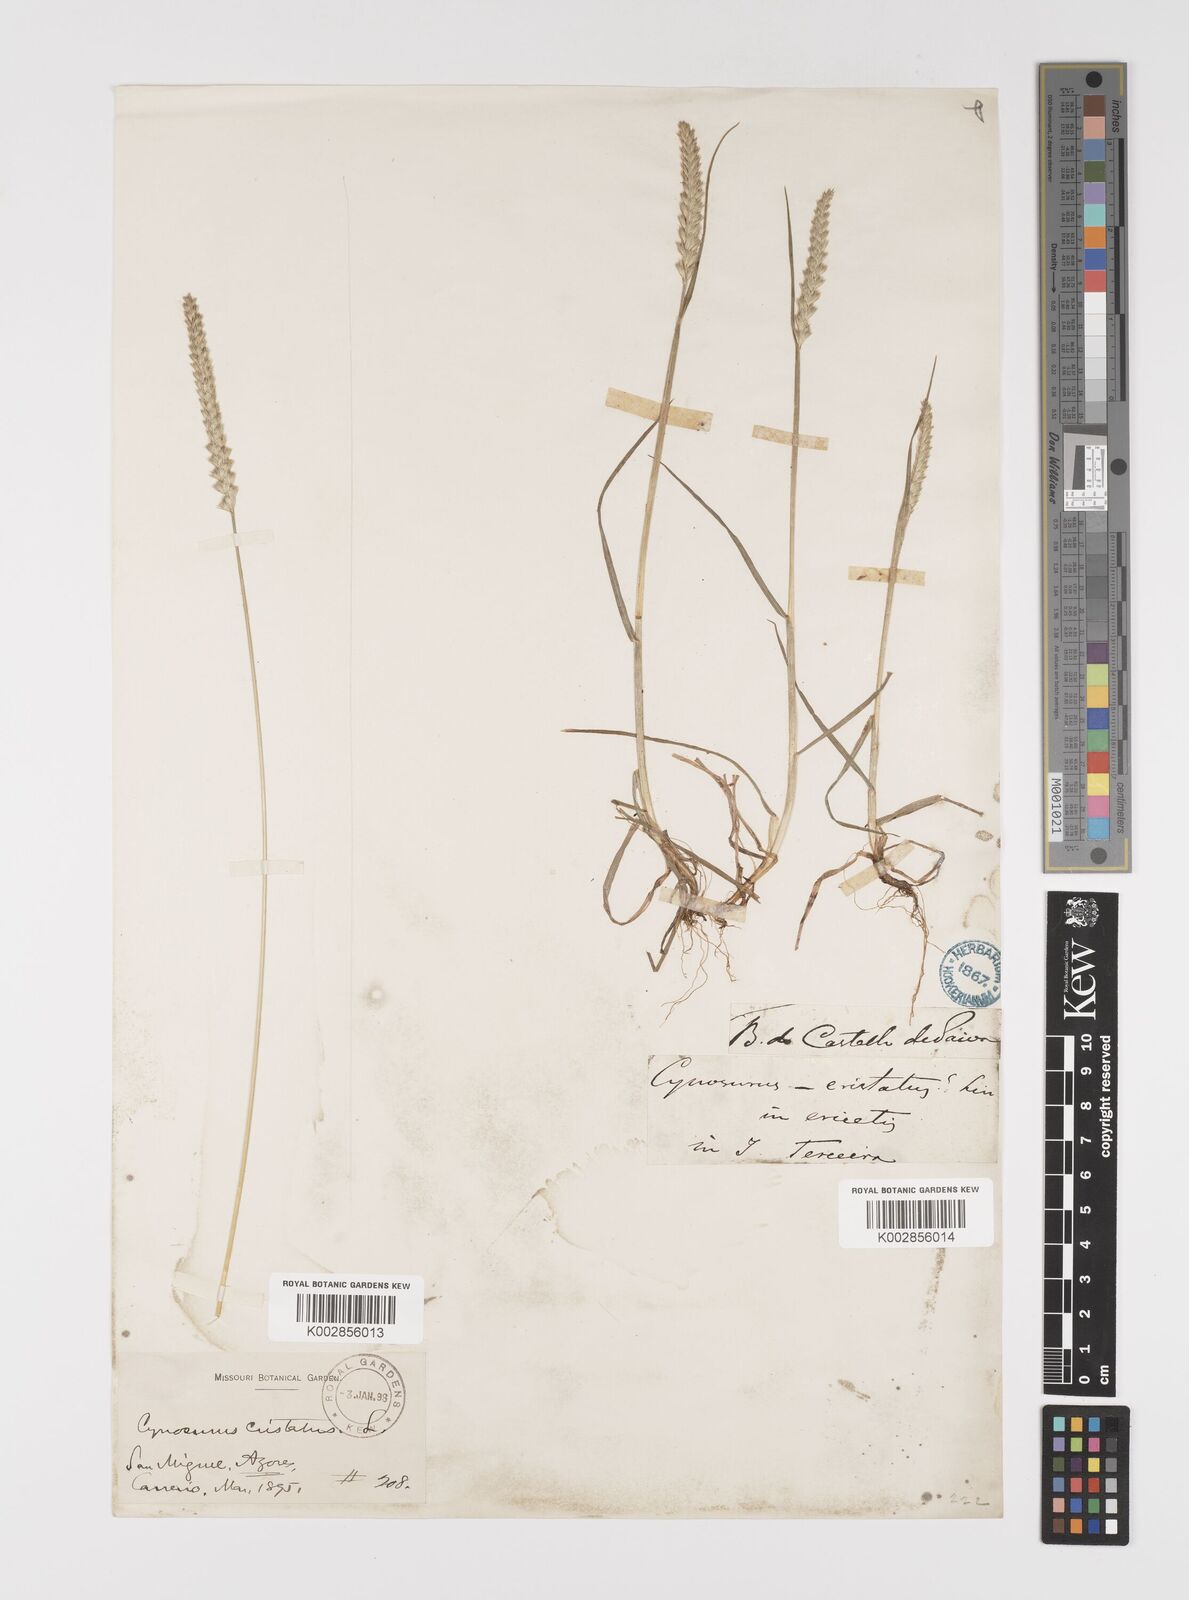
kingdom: Plantae
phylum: Tracheophyta
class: Liliopsida
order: Poales
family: Poaceae
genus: Cynosurus
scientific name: Cynosurus cristatus
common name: Crested dog's-tail
